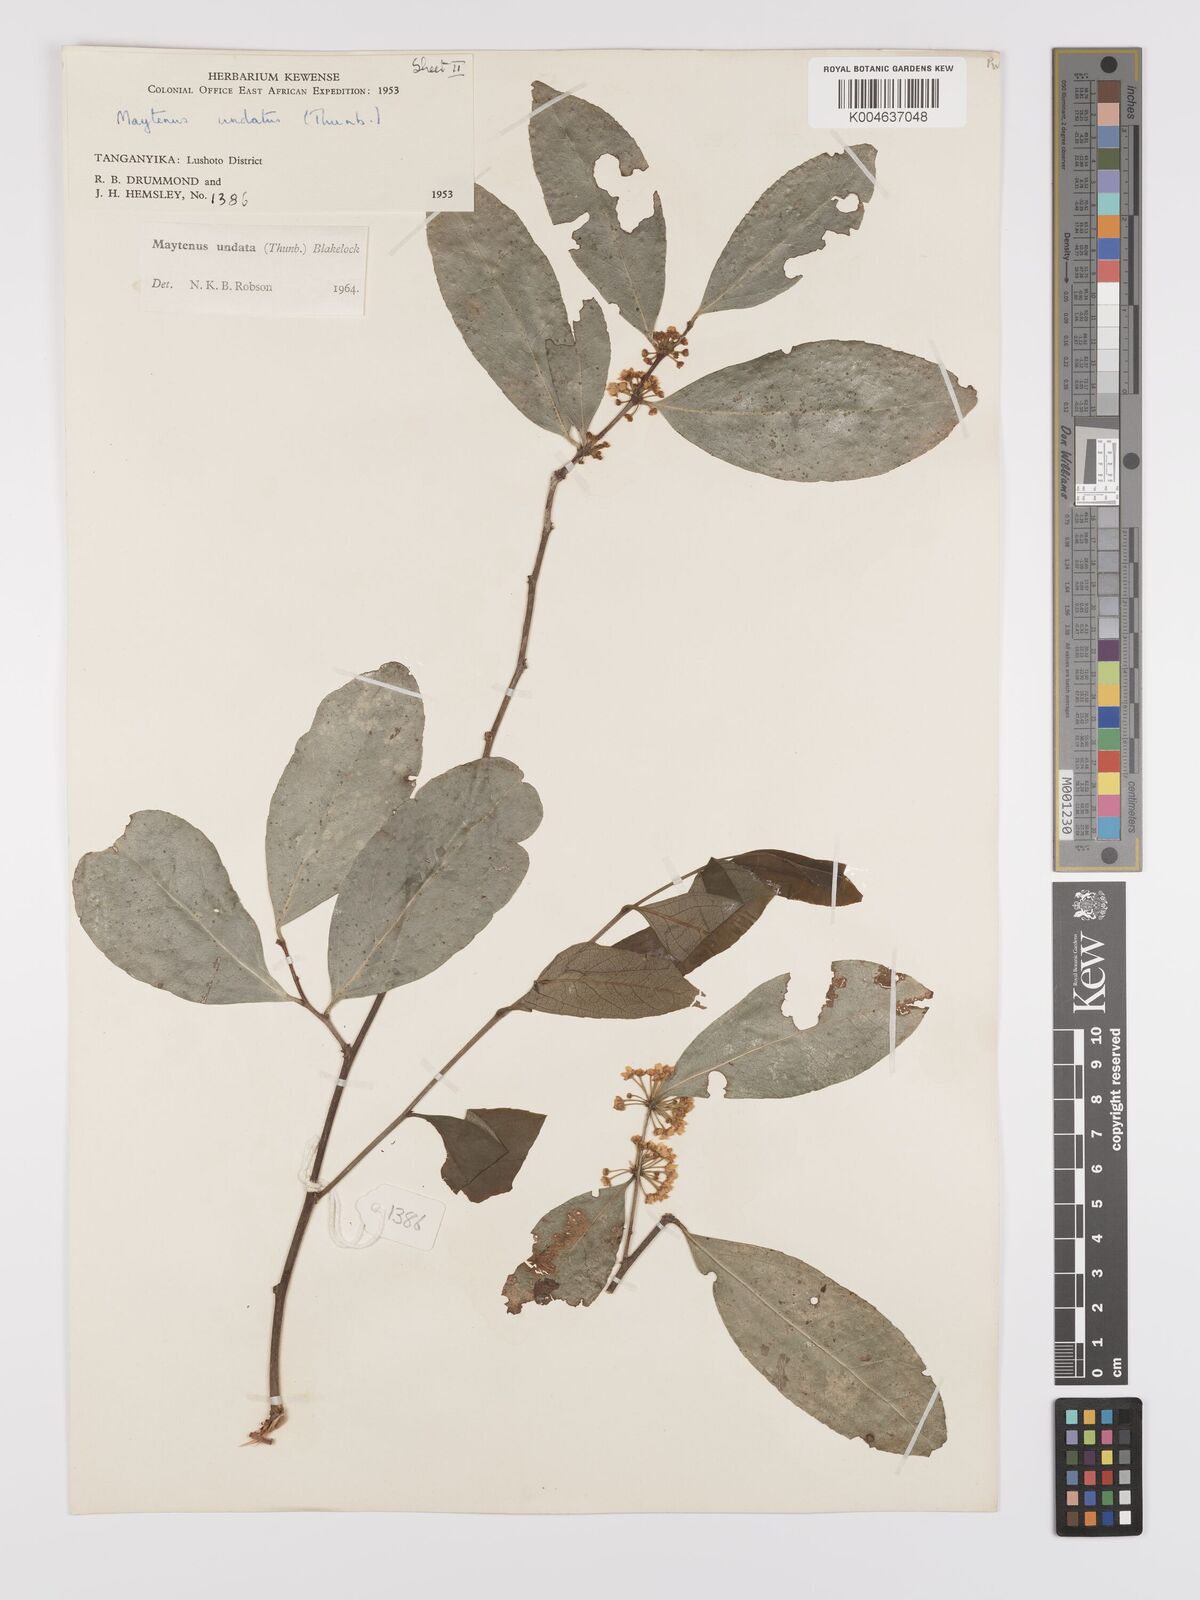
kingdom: Plantae
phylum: Tracheophyta
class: Magnoliopsida
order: Celastrales
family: Celastraceae
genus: Gymnosporia
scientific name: Gymnosporia undata
